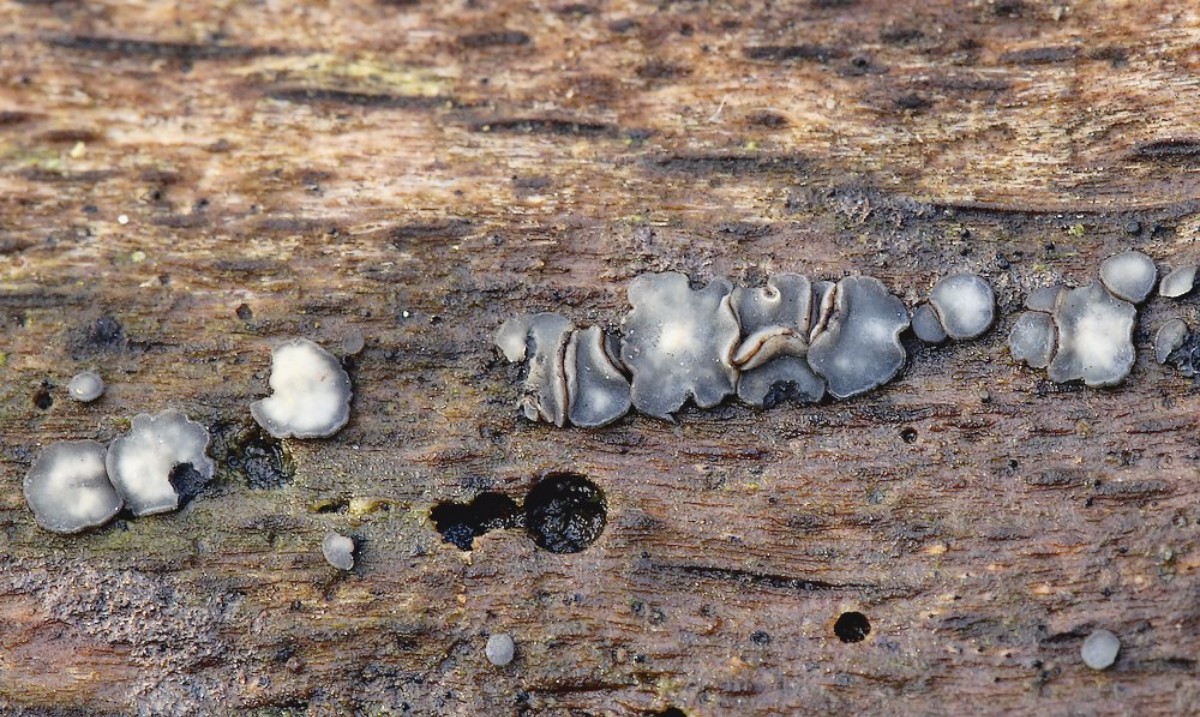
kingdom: Fungi
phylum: Ascomycota
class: Leotiomycetes
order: Helotiales
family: Mollisiaceae
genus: Mollisia
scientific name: Mollisia cinerea
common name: almindelig gråskive
